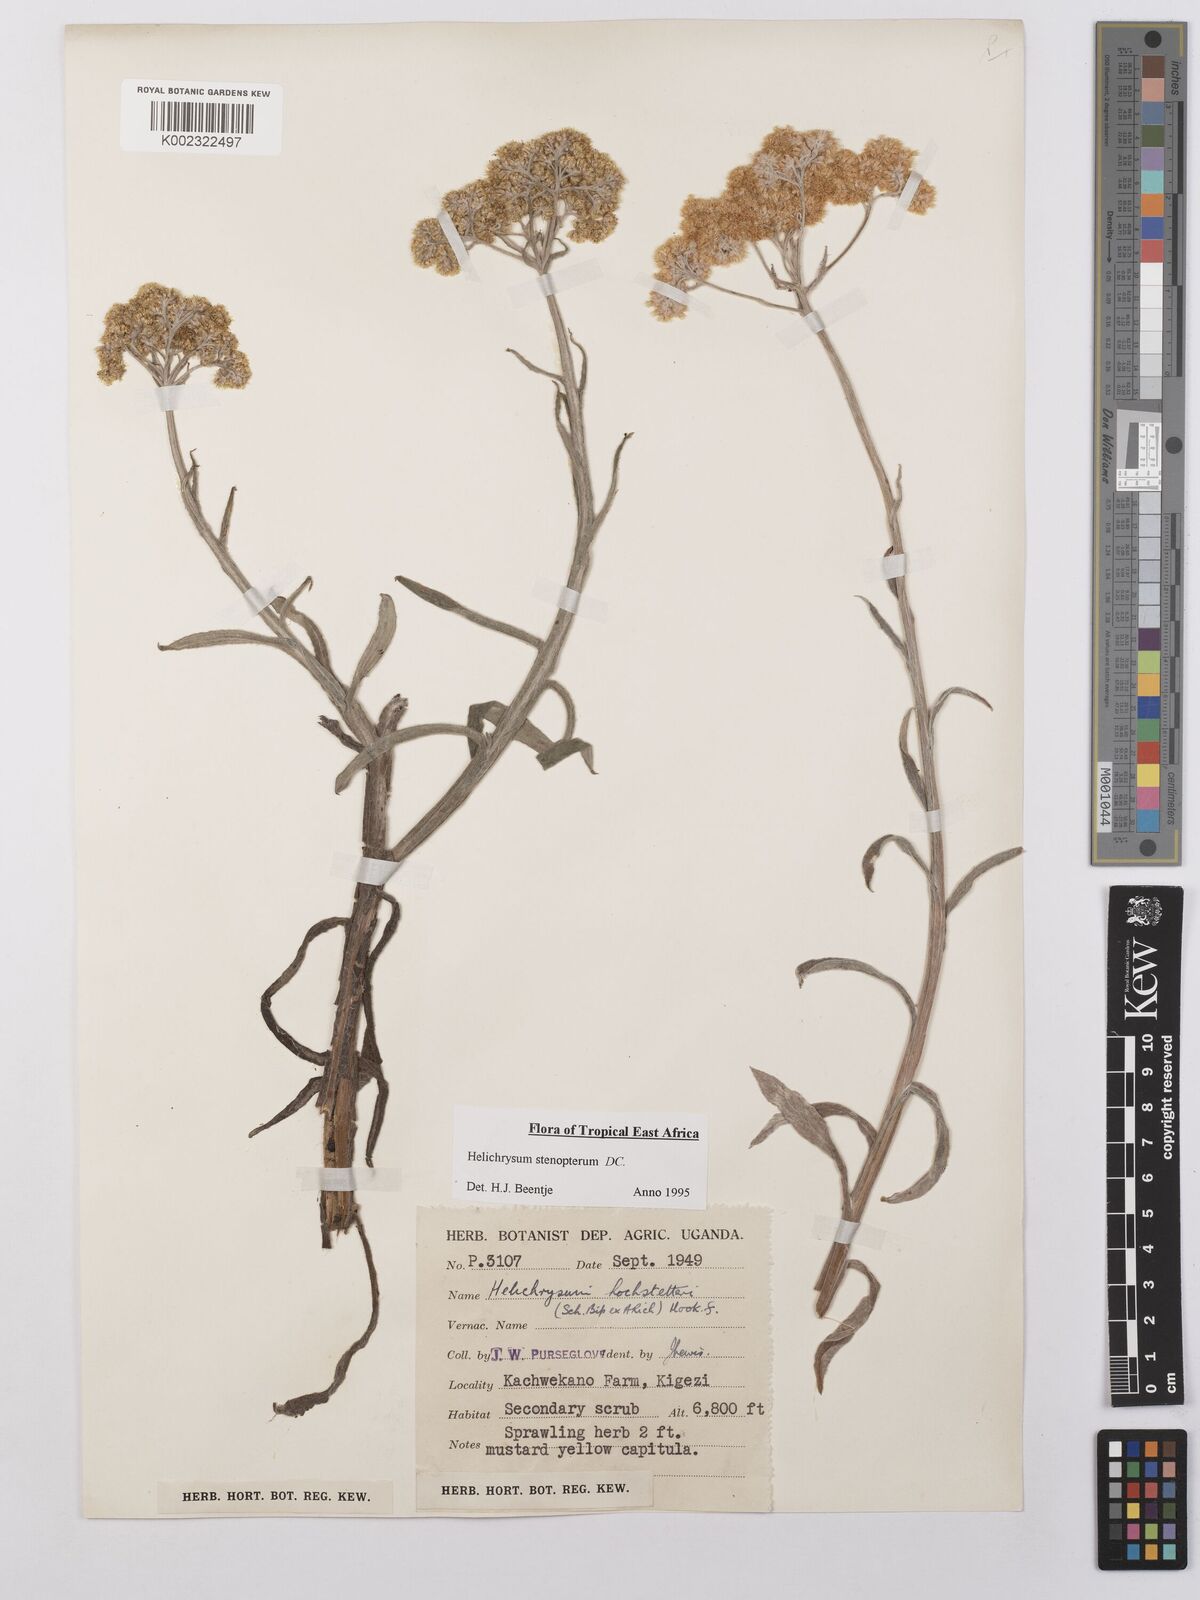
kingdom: Plantae
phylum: Tracheophyta
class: Magnoliopsida
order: Asterales
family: Asteraceae
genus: Helichrysum
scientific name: Helichrysum stenopterum
